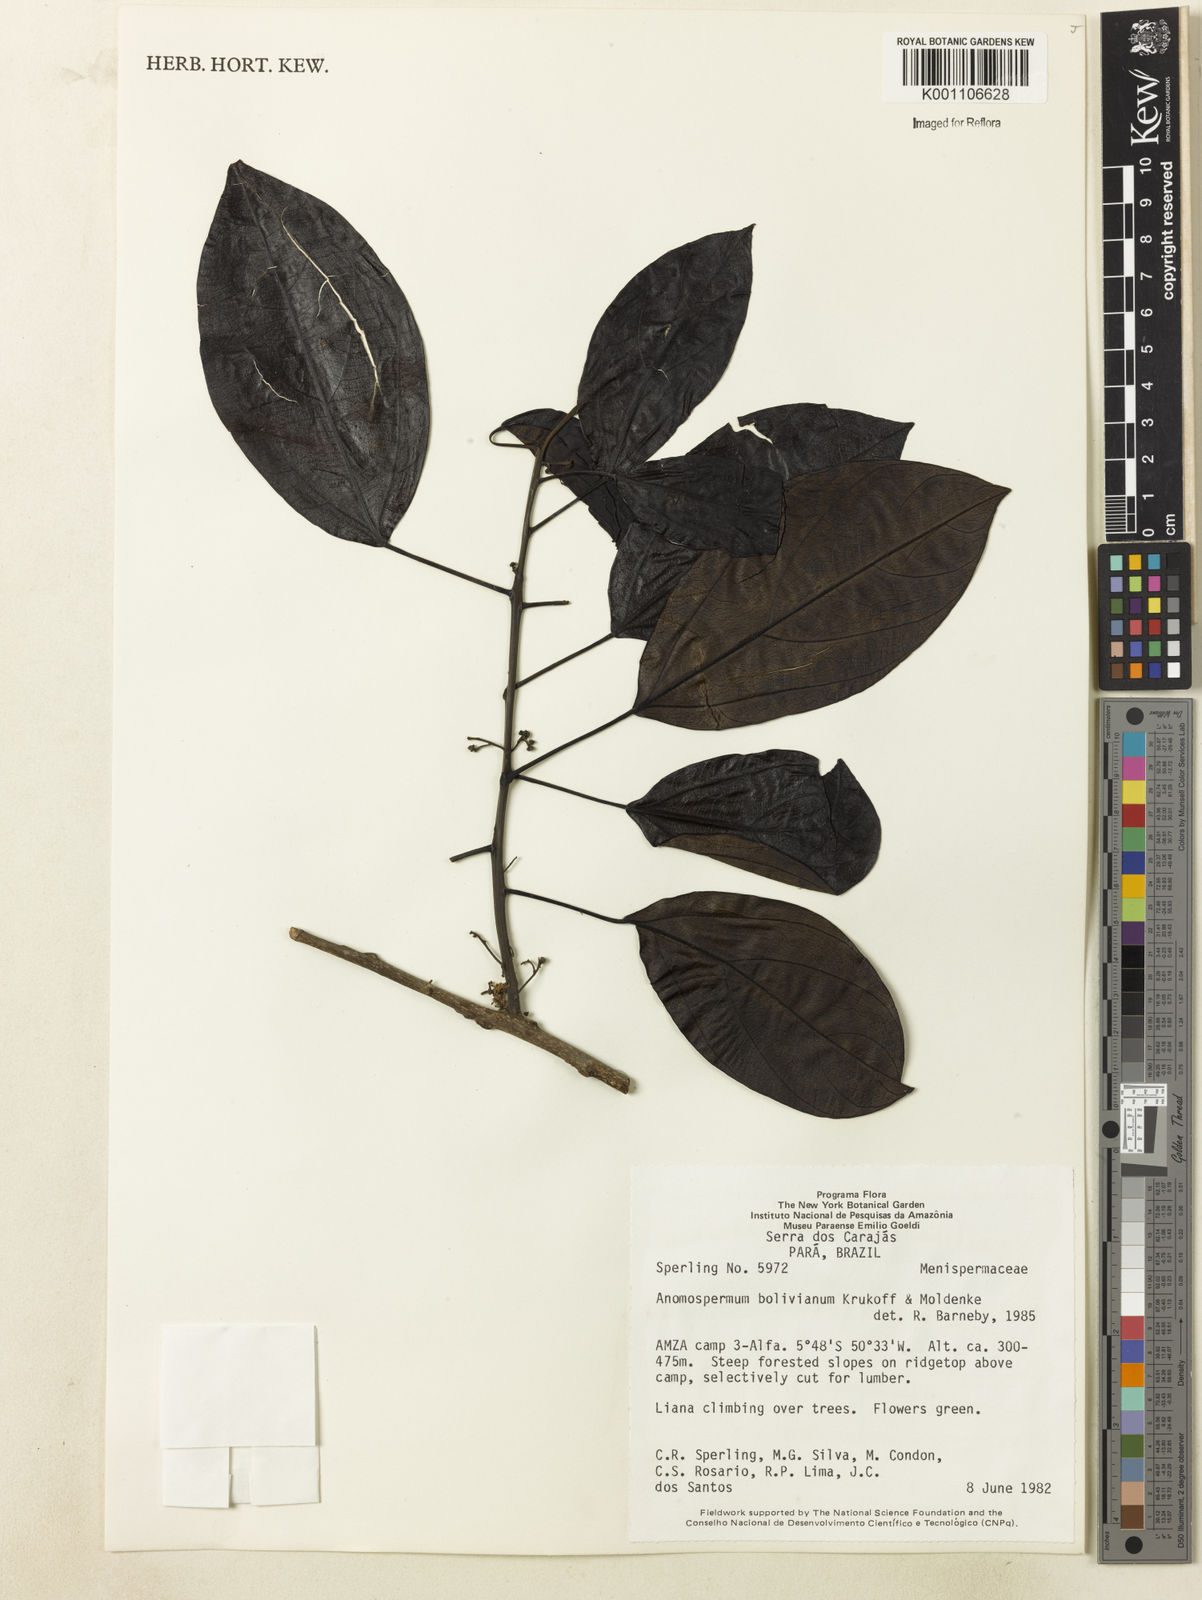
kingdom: Plantae
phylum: Tracheophyta
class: Magnoliopsida
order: Ranunculales
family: Menispermaceae
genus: Rupertiella
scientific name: Rupertiella boliviana
